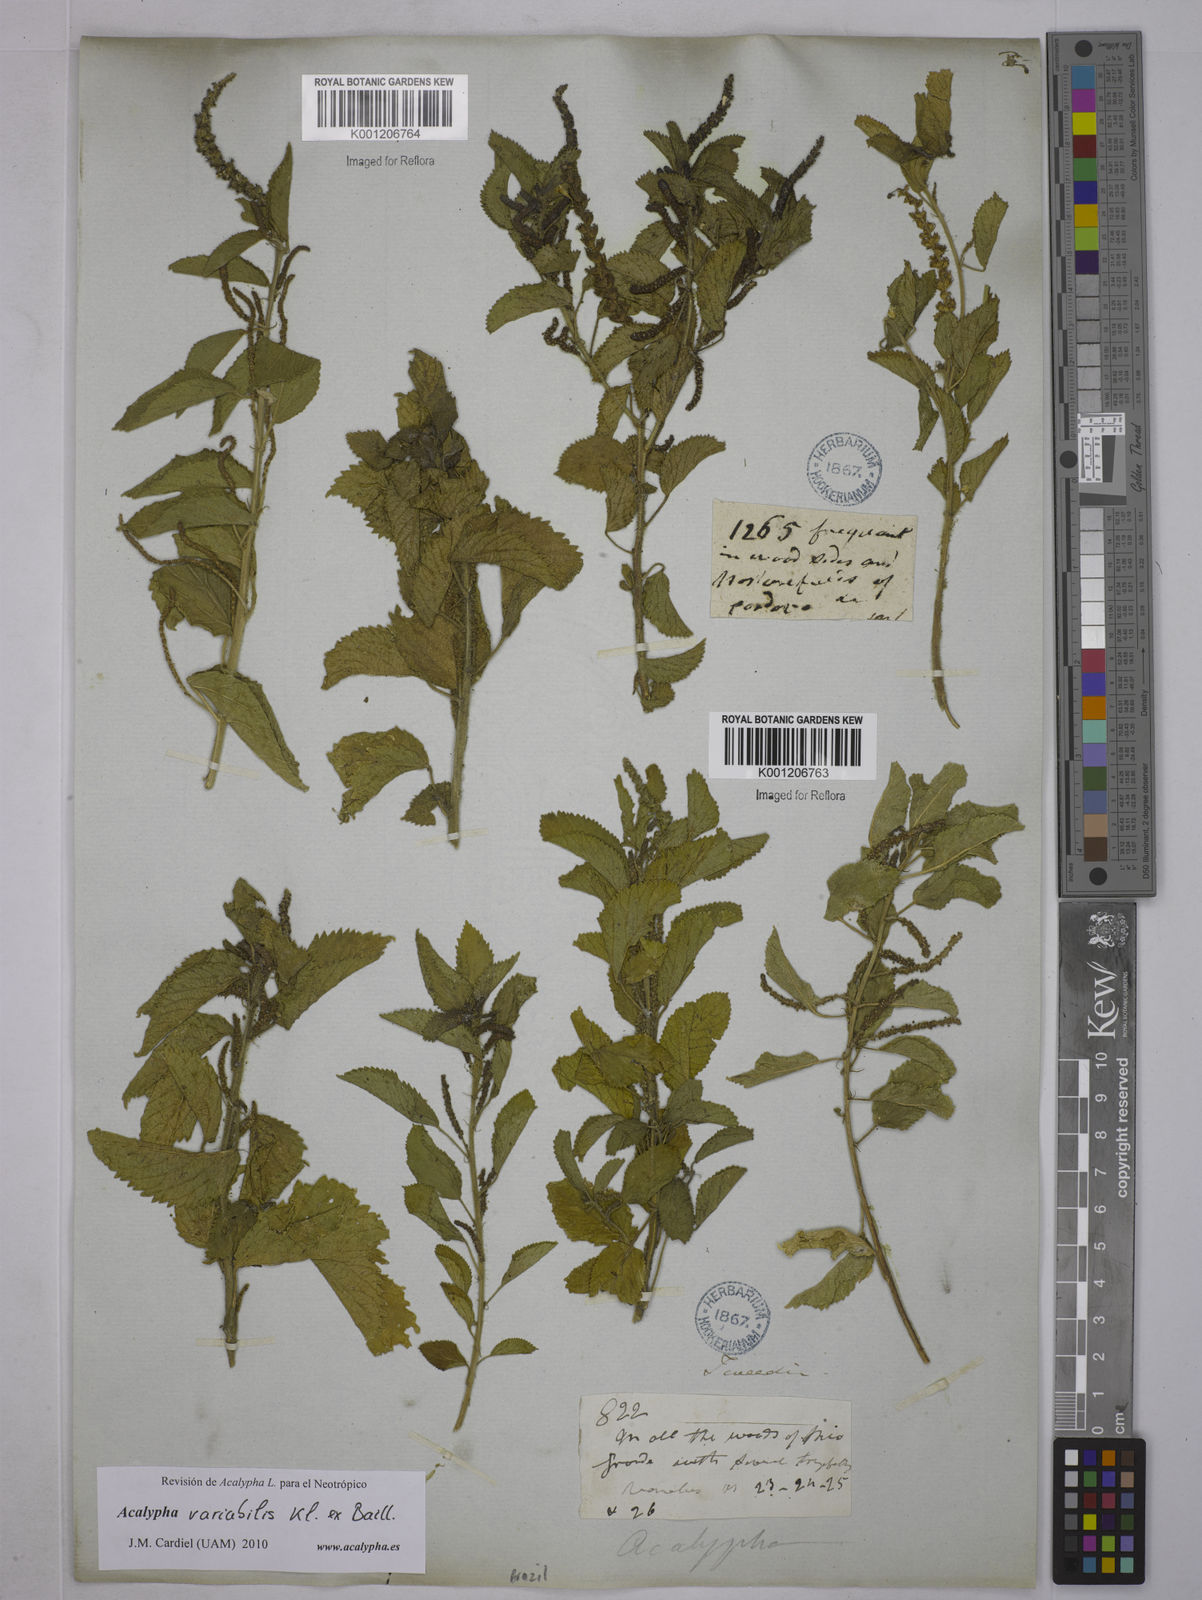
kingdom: Plantae
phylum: Tracheophyta
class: Magnoliopsida
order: Malpighiales
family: Euphorbiaceae
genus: Acalypha
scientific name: Acalypha variabilis
